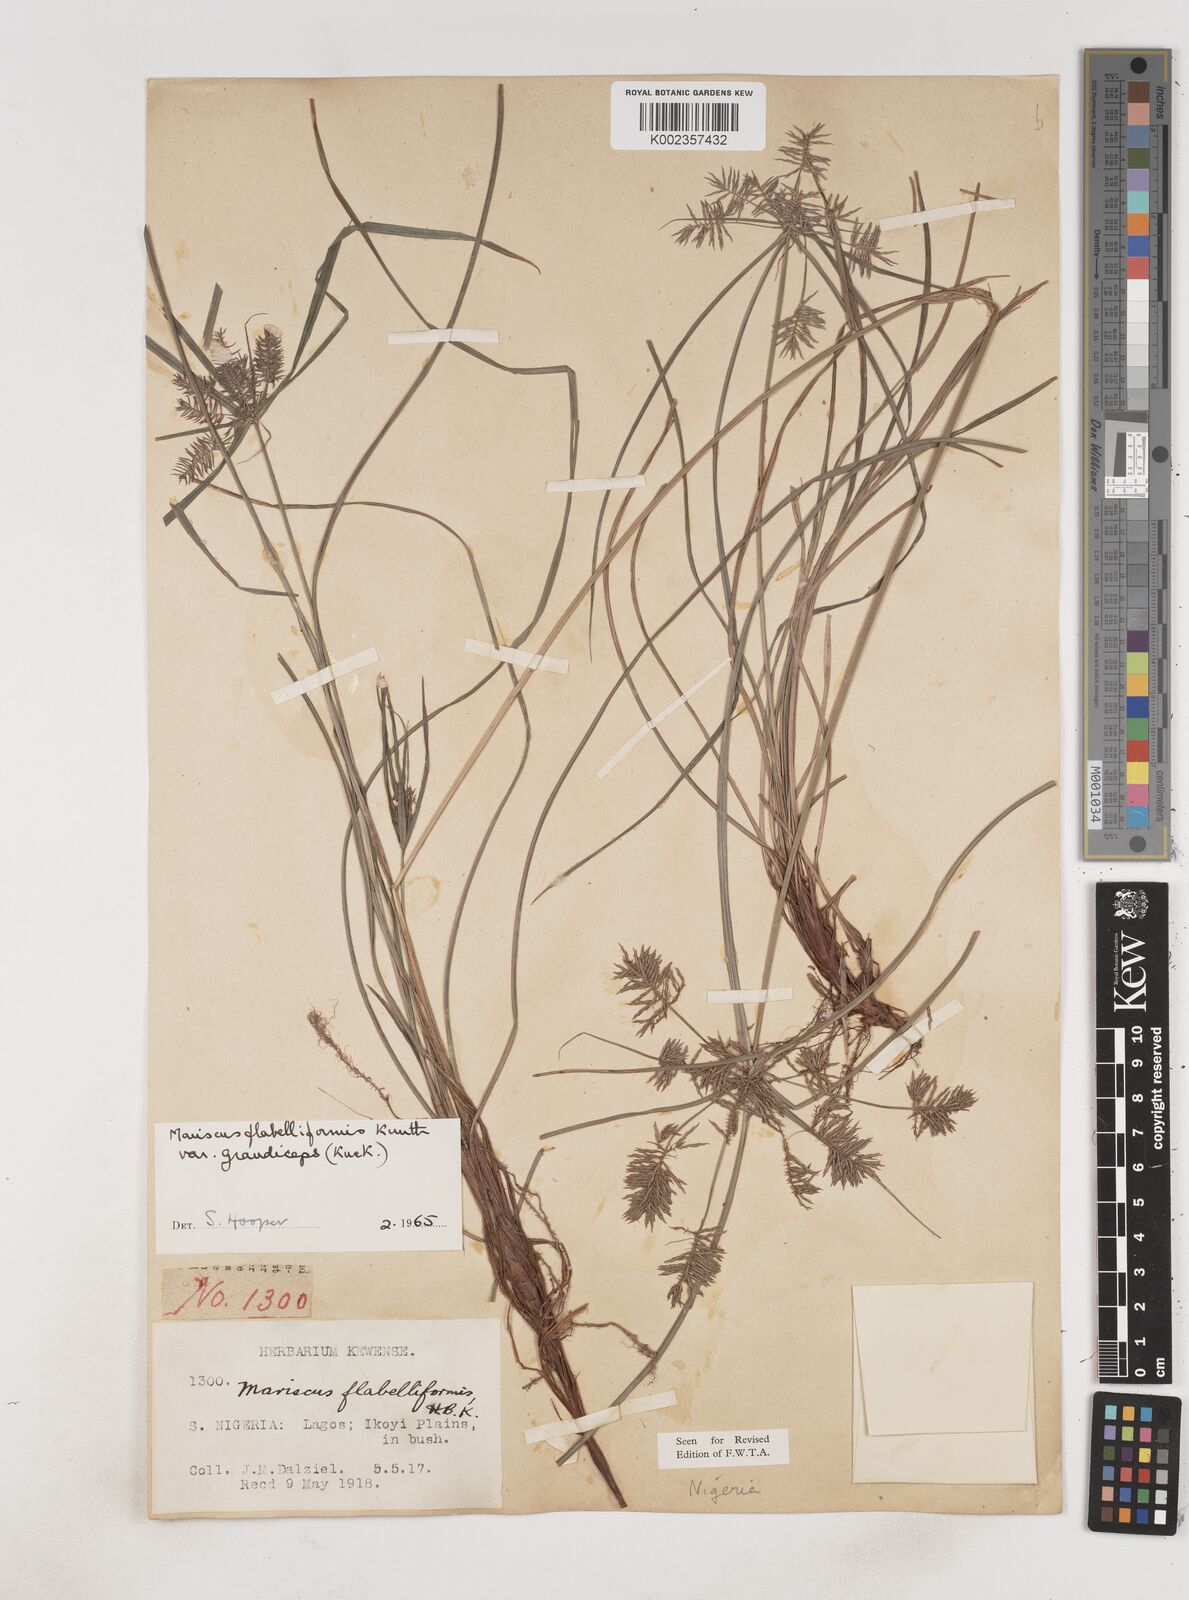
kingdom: Plantae
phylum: Tracheophyta
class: Liliopsida
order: Poales
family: Cyperaceae
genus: Cyperus
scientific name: Cyperus tenuis
